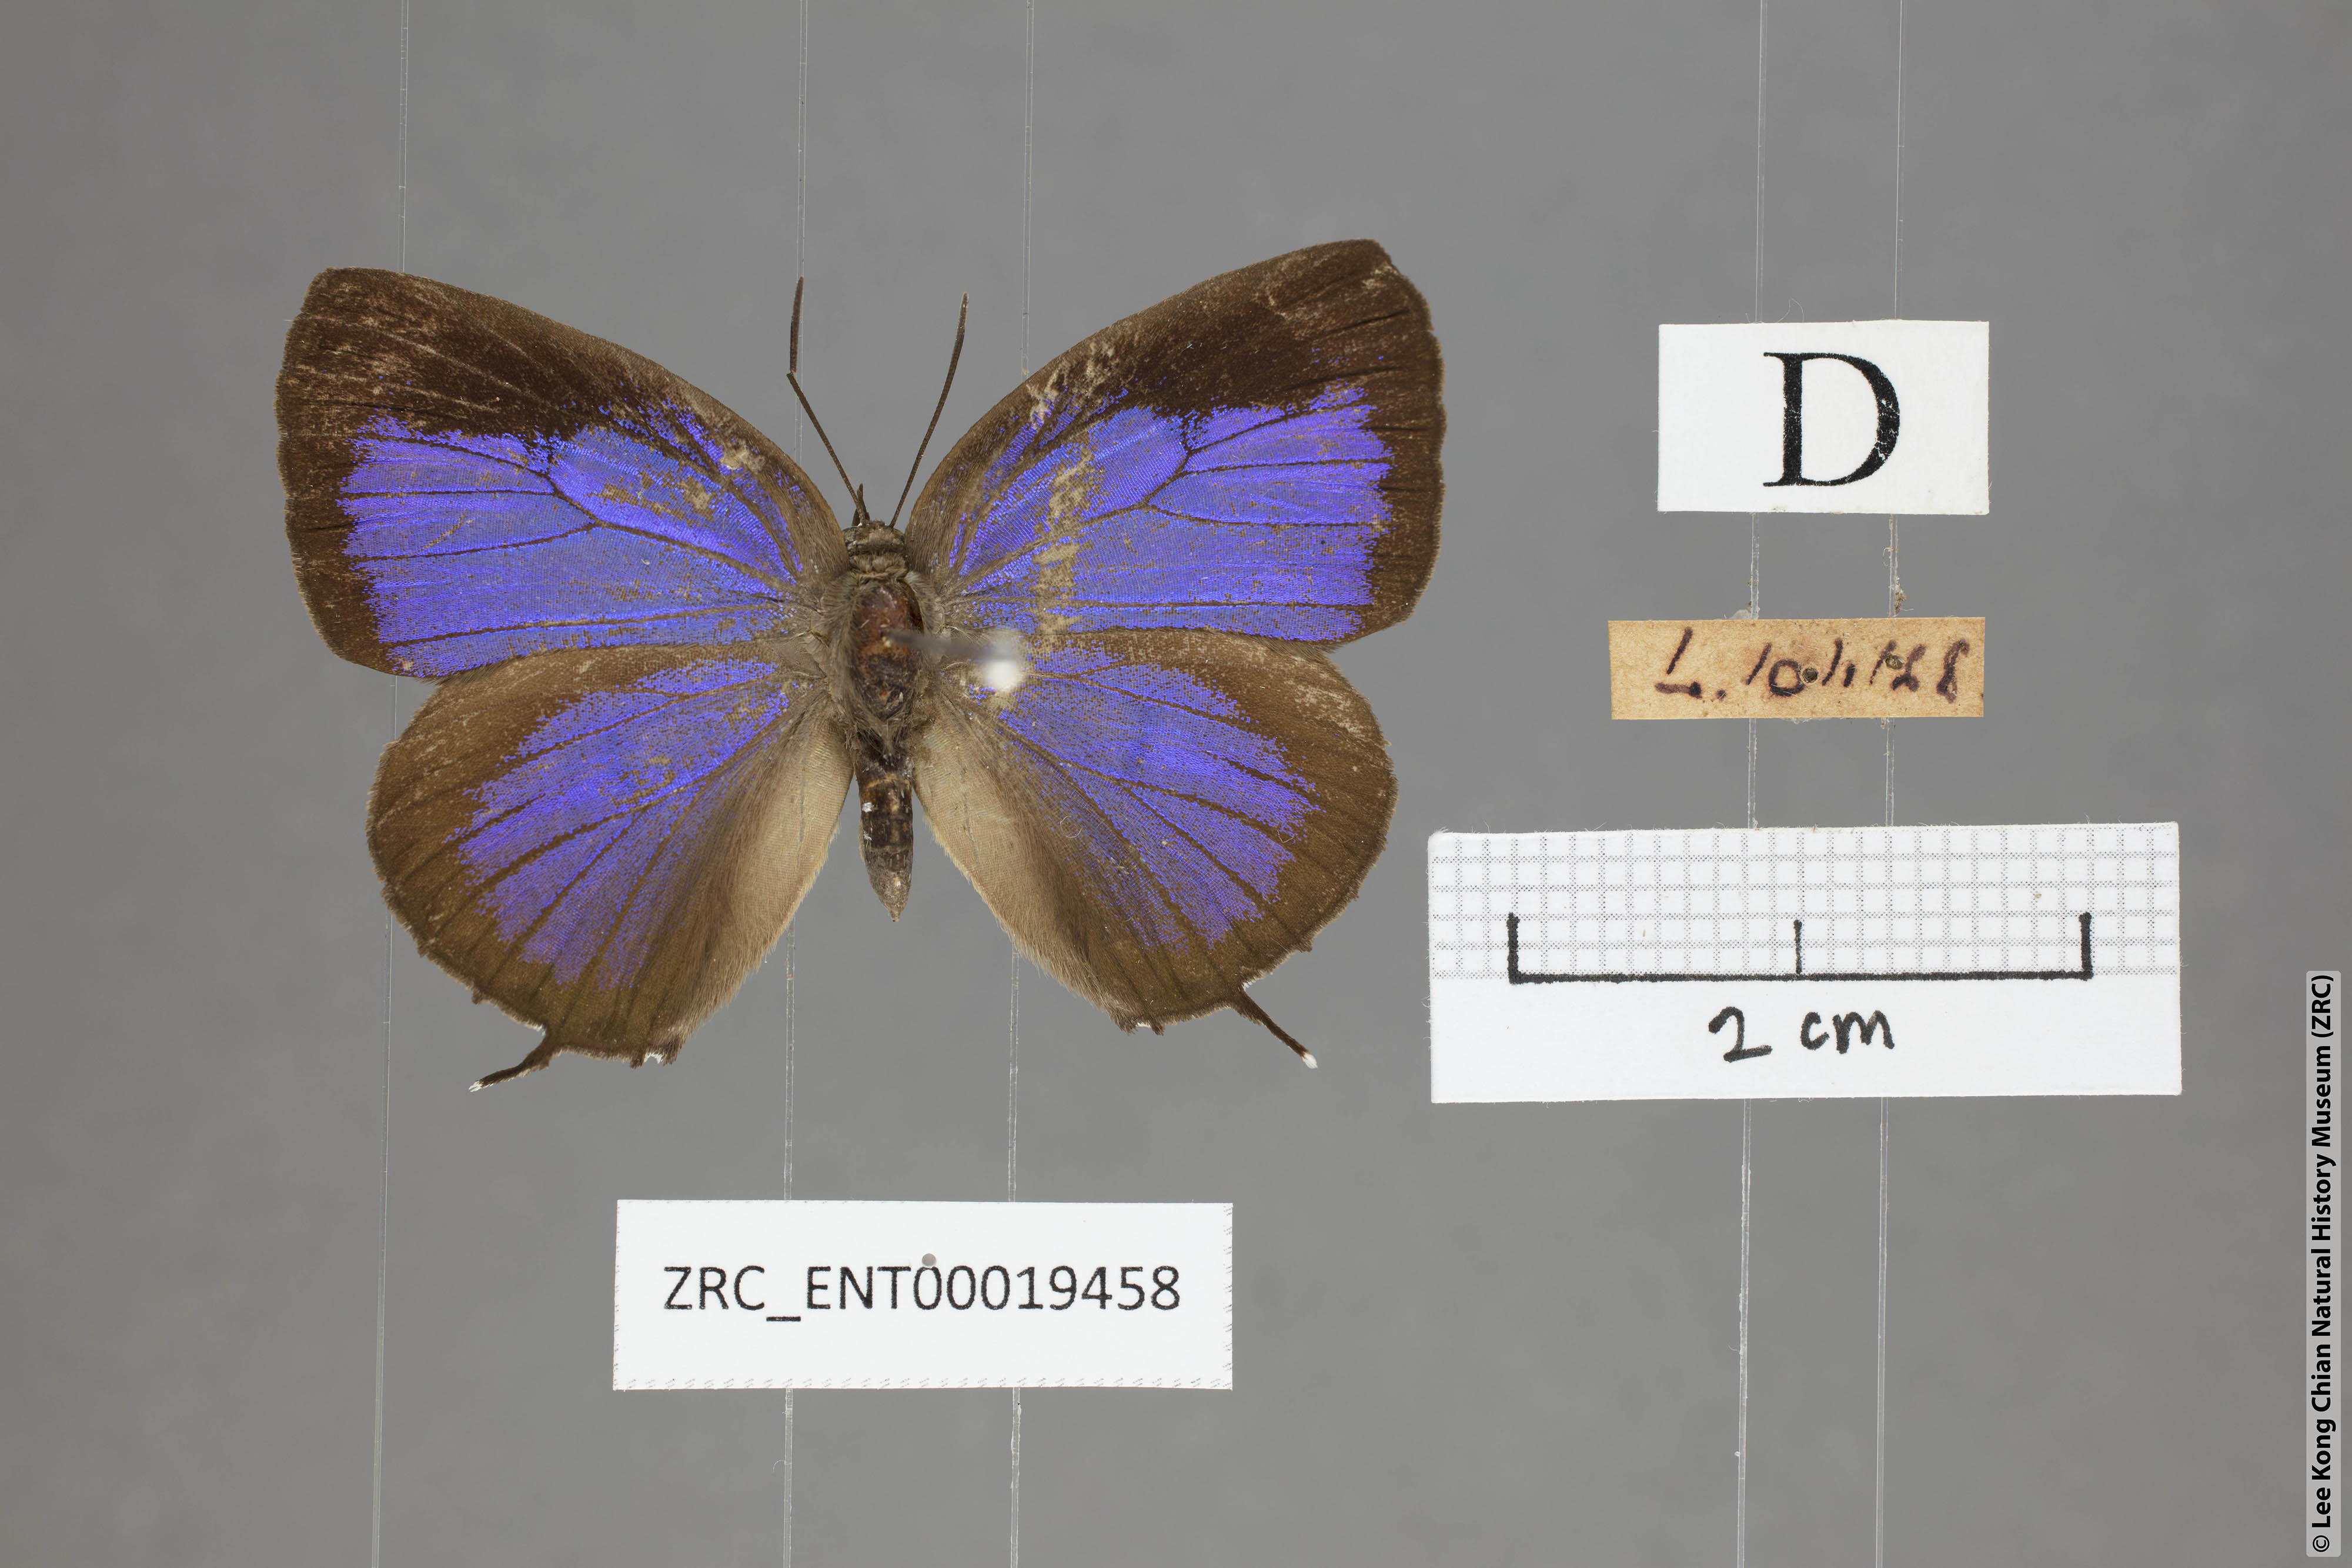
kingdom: Animalia
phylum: Arthropoda
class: Insecta
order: Lepidoptera
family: Lycaenidae
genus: Arhopala
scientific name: Arhopala eumolphus
